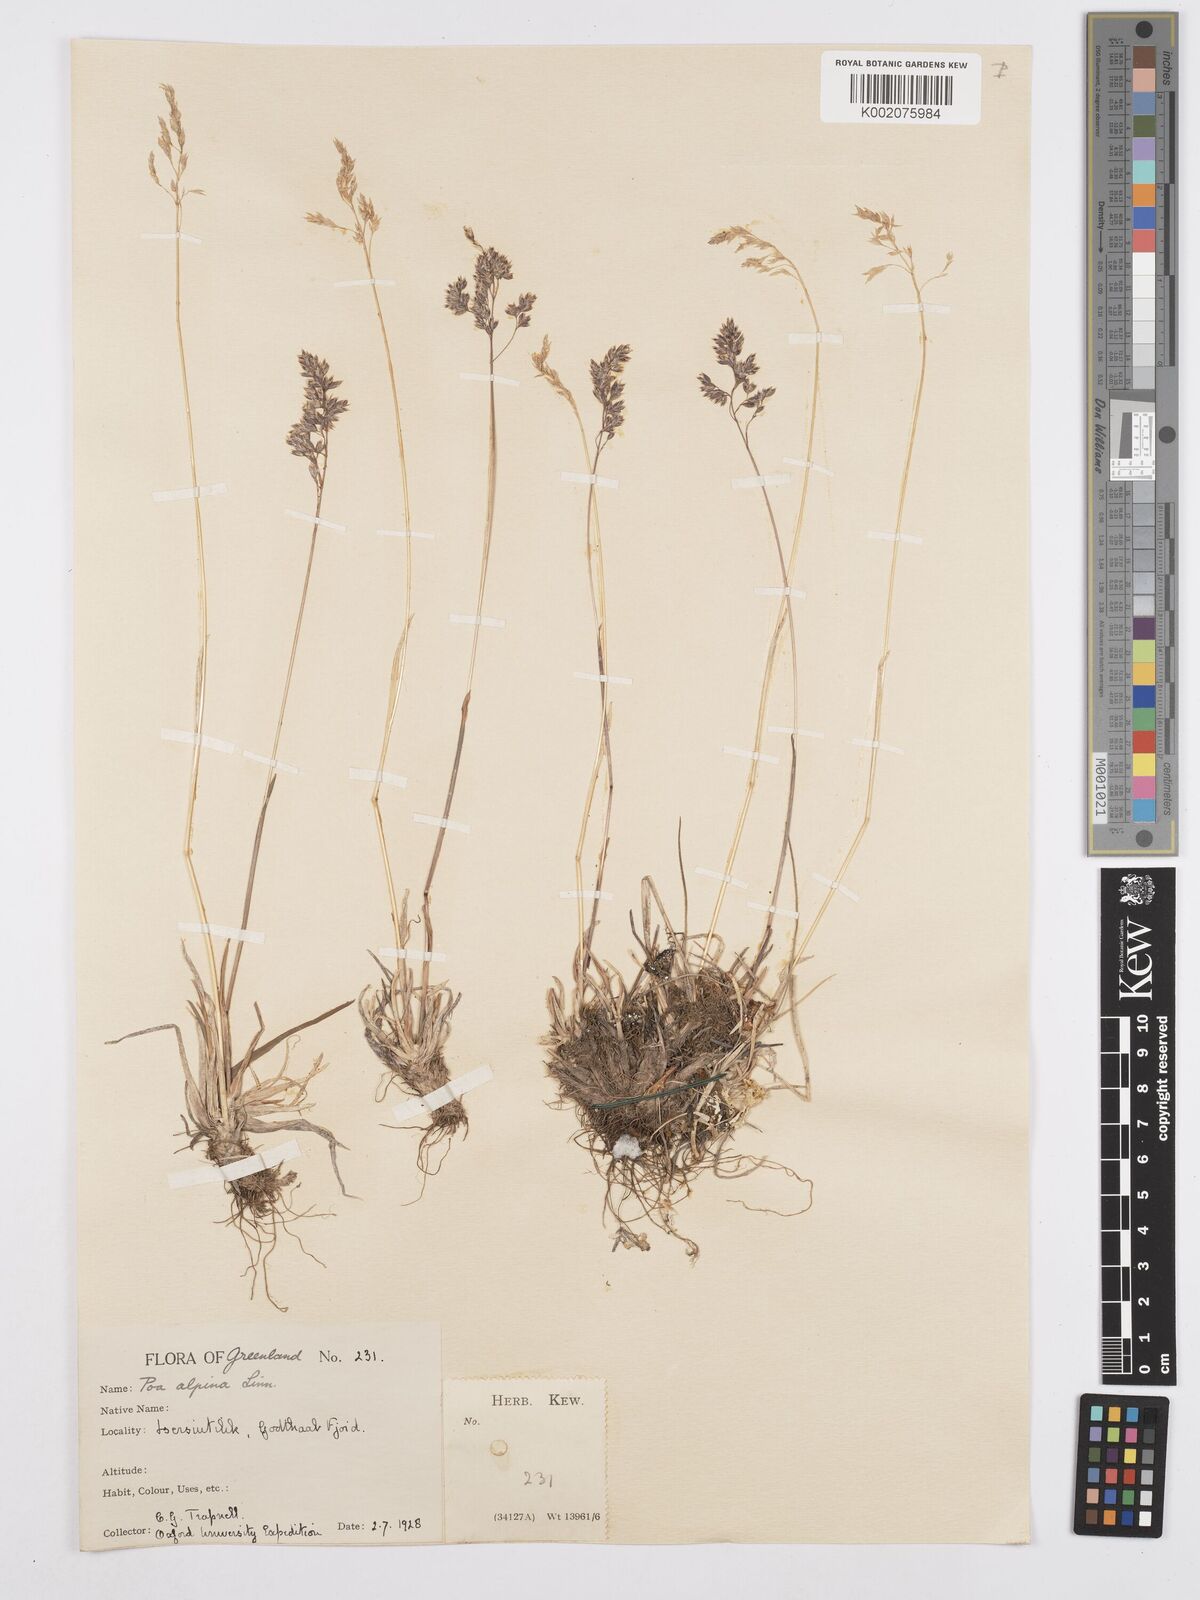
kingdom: Plantae
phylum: Tracheophyta
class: Liliopsida
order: Poales
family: Poaceae
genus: Poa
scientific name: Poa alpina
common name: Alpine bluegrass
